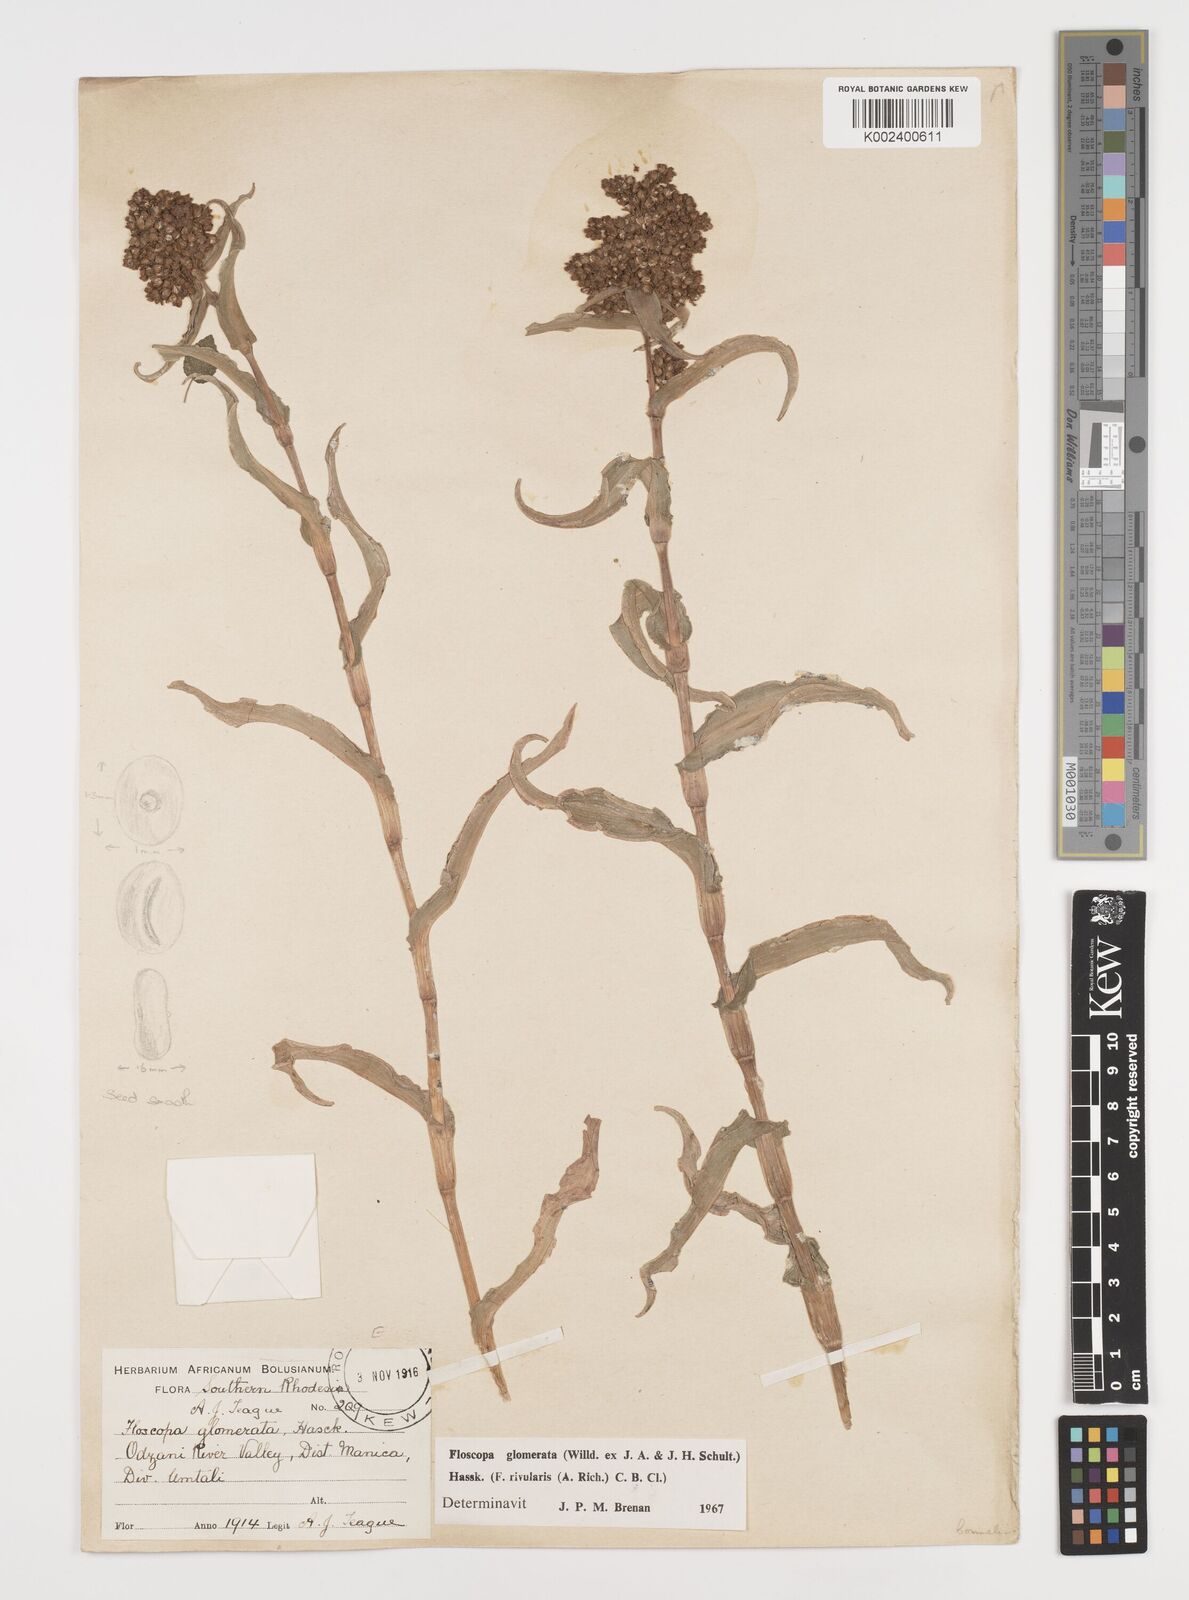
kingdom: Plantae
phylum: Tracheophyta
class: Liliopsida
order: Commelinales
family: Commelinaceae
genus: Floscopa
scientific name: Floscopa glomerata
